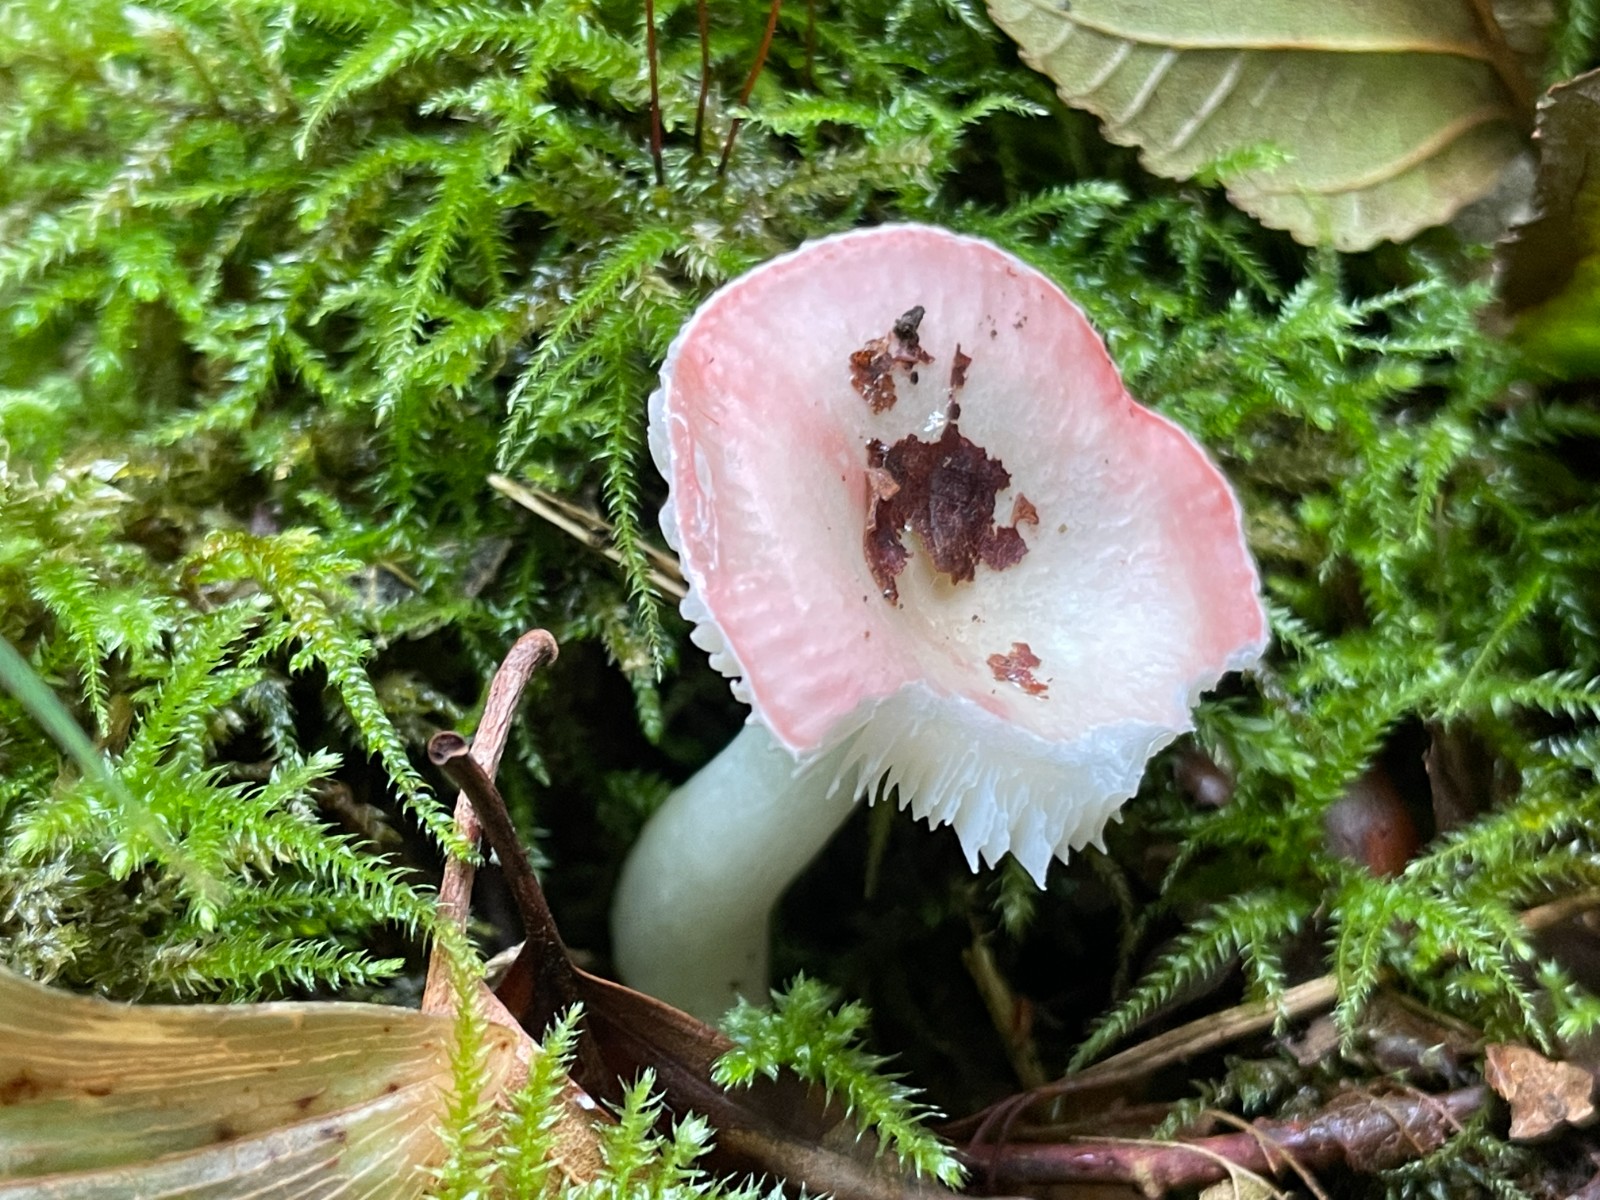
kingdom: Fungi
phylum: Basidiomycota
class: Agaricomycetes
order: Russulales
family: Russulaceae
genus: Russula
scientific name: Russula betularum
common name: bleg gift-skørhat
